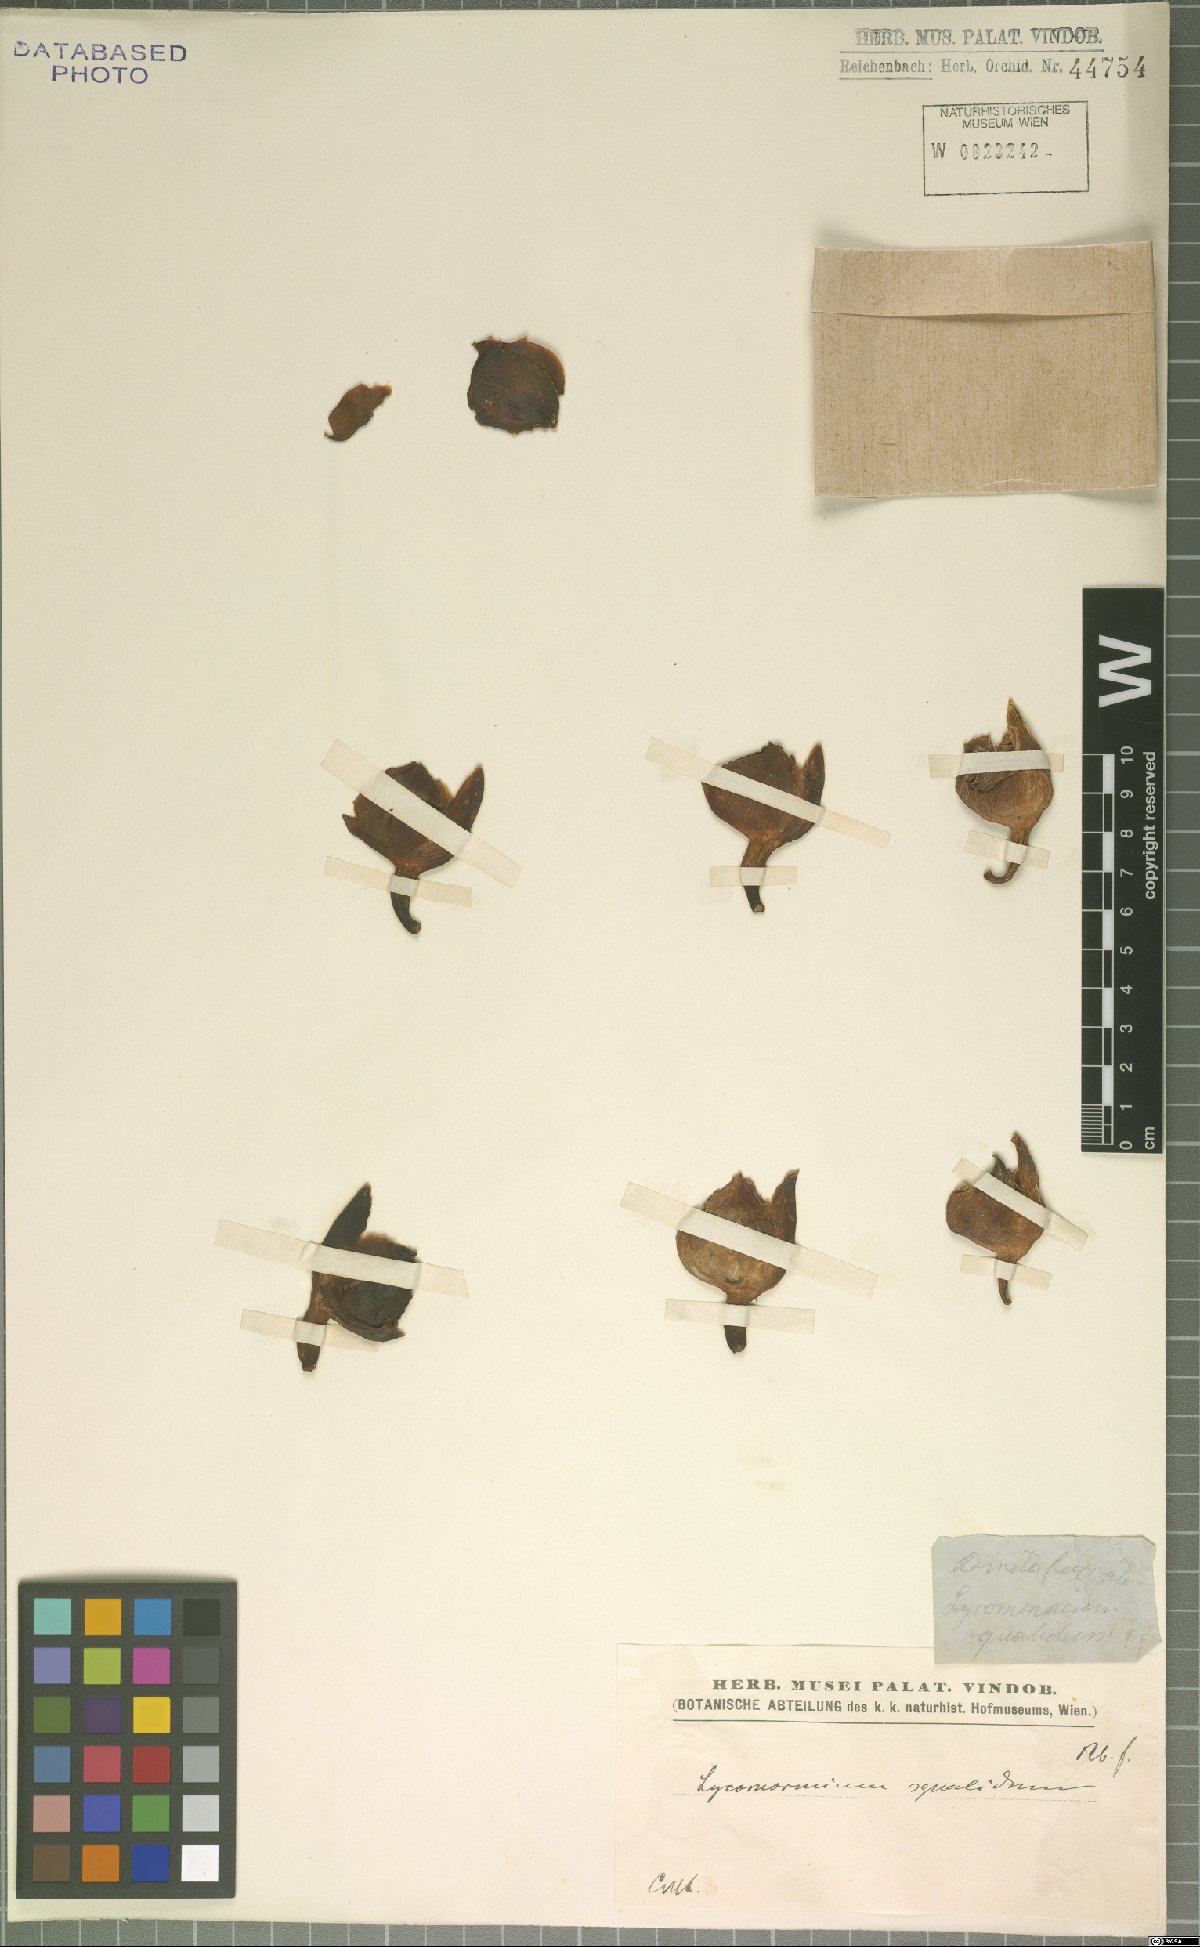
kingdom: Plantae
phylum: Tracheophyta
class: Liliopsida
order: Asparagales
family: Orchidaceae
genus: Lycomormium
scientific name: Lycomormium squalidum
